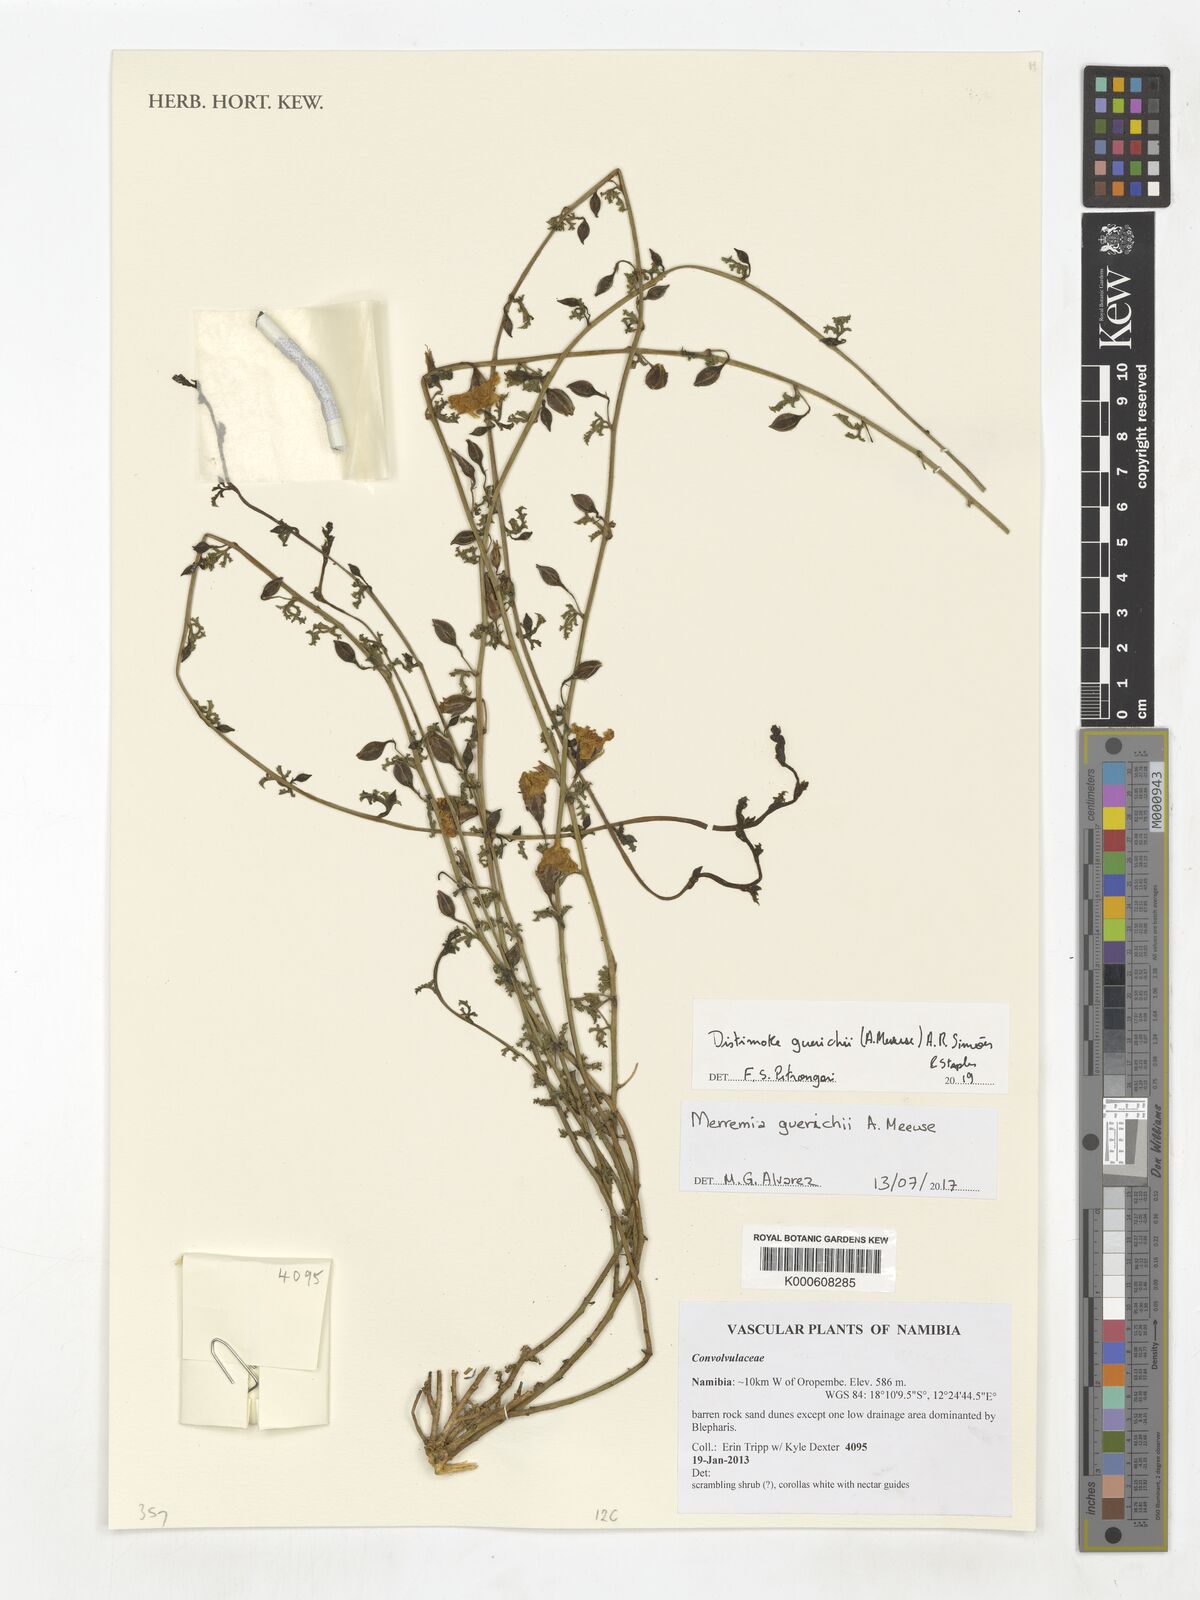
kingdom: Plantae
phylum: Tracheophyta
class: Magnoliopsida
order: Solanales
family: Convolvulaceae
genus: Distimake
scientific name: Distimake guerichii
